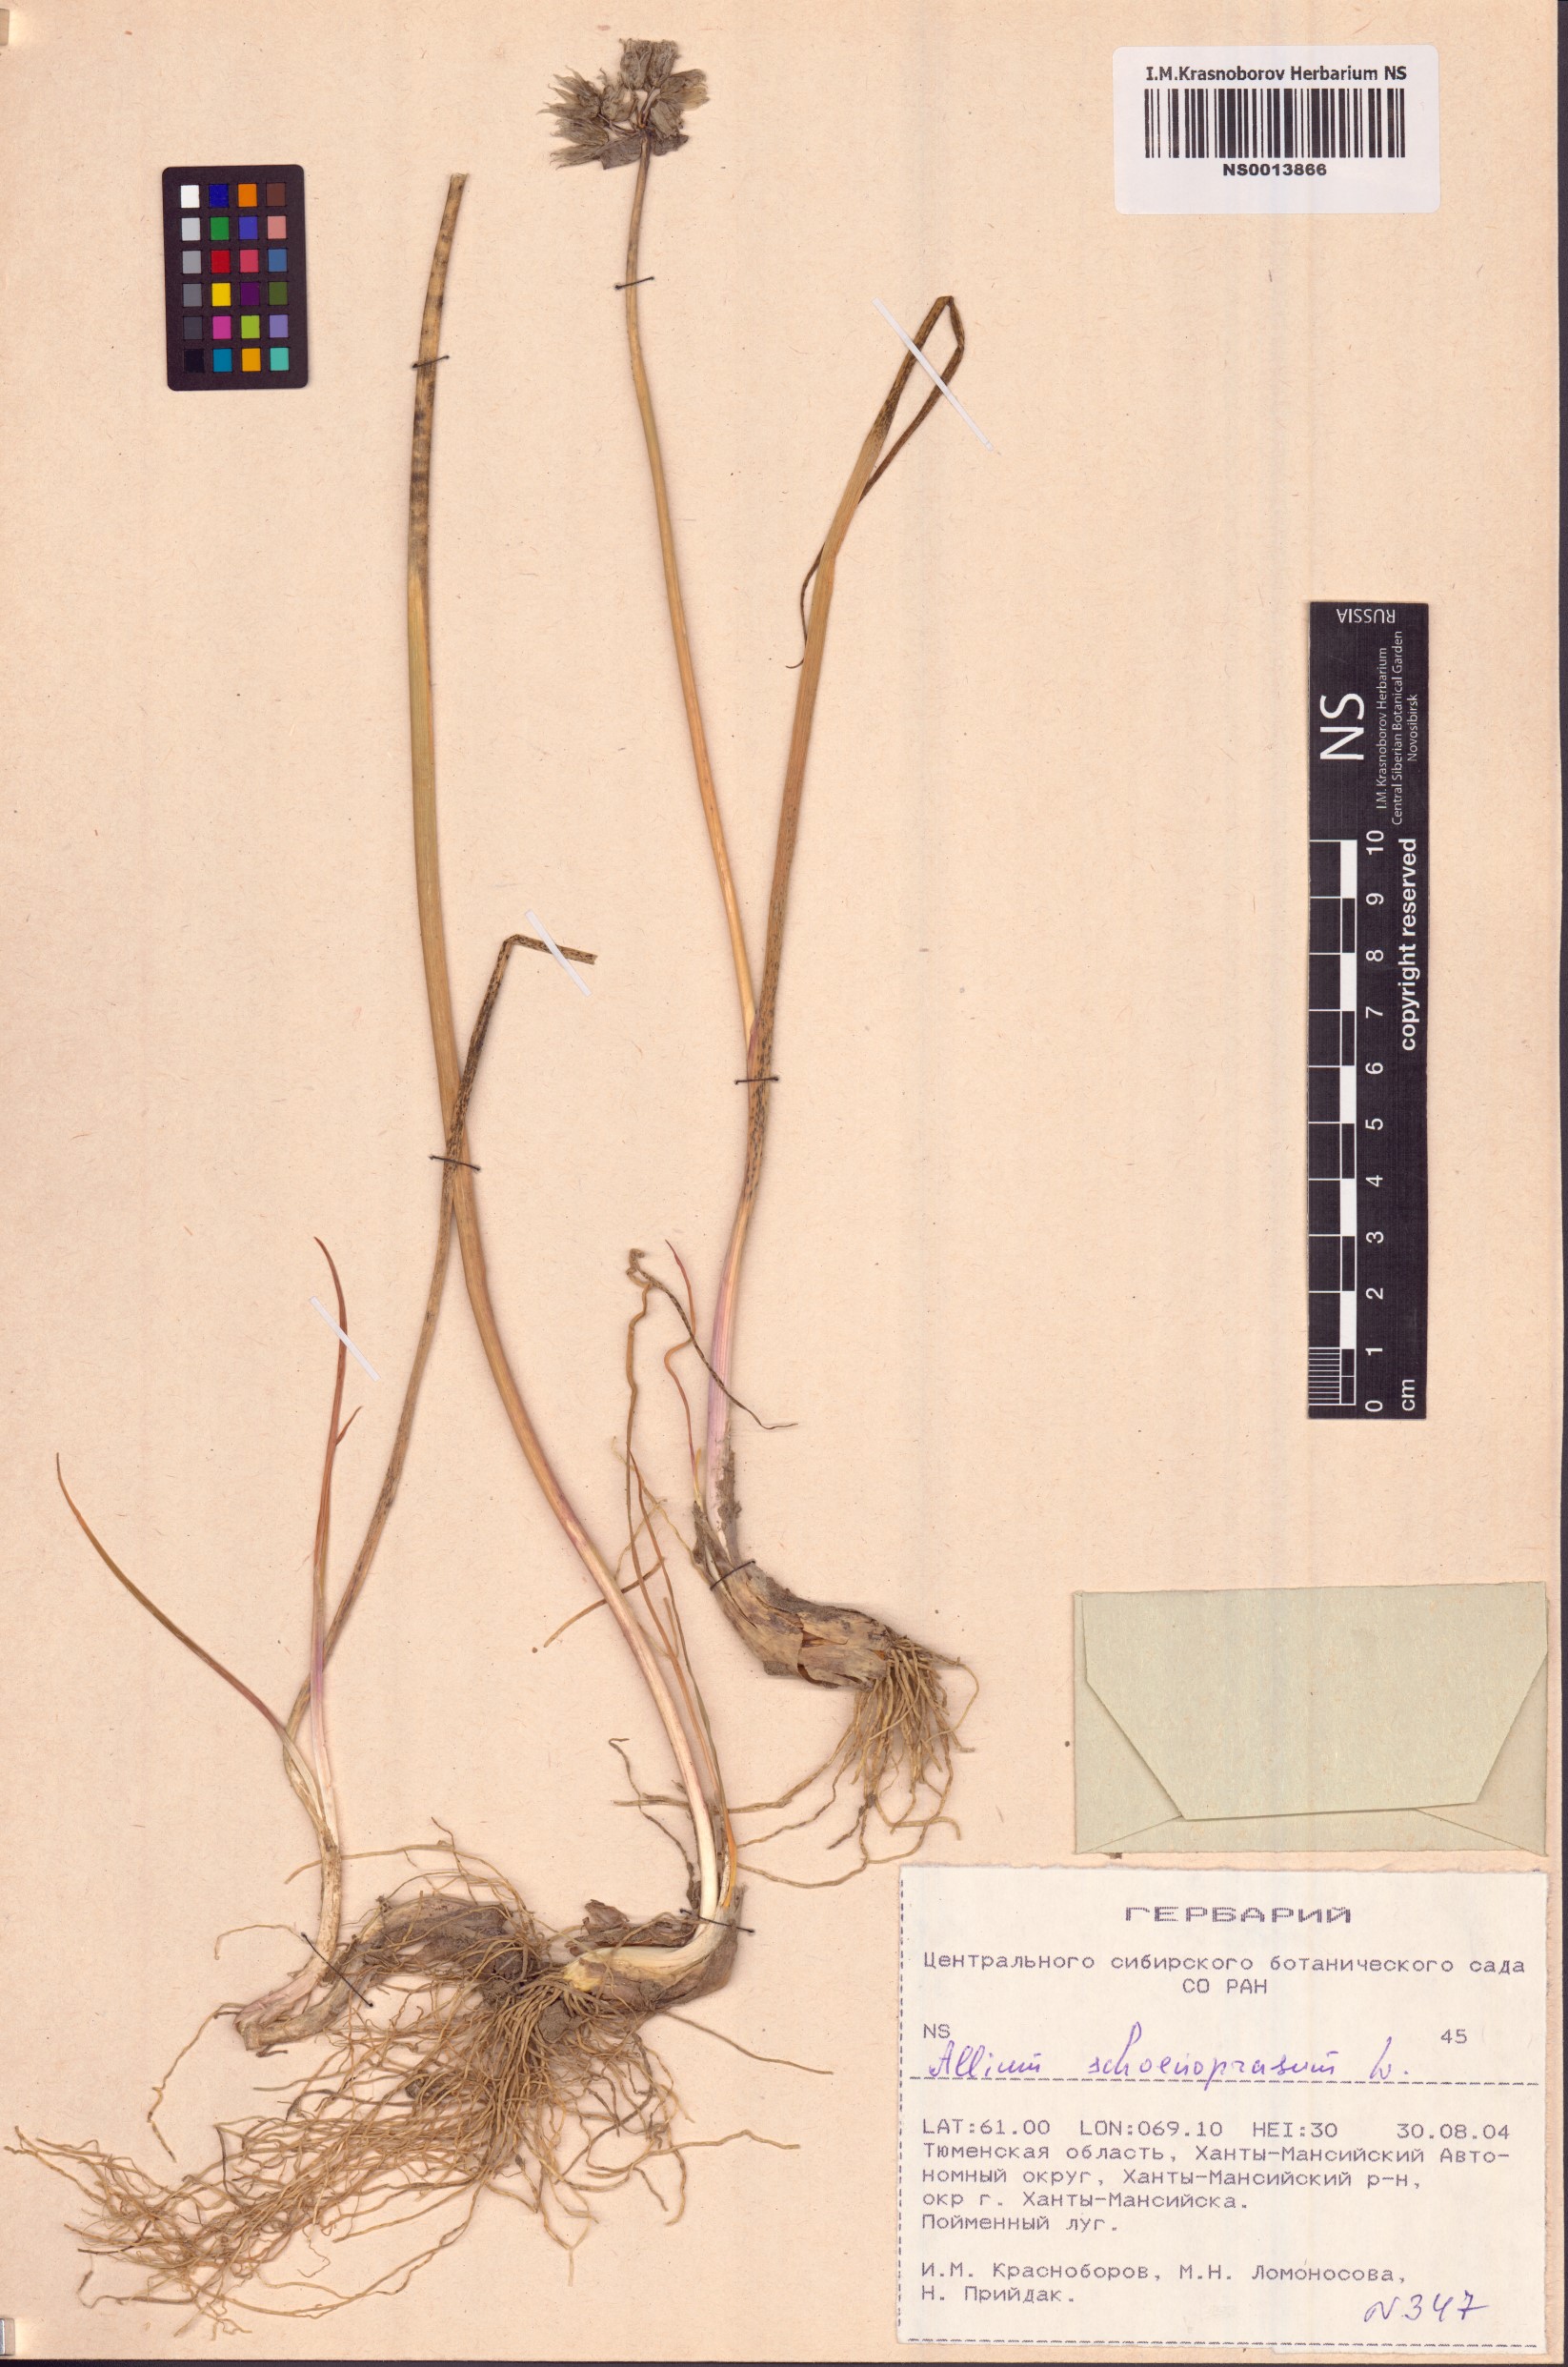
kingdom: Plantae
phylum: Tracheophyta
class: Liliopsida
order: Asparagales
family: Amaryllidaceae
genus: Allium
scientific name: Allium schoenoprasum
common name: Chives
